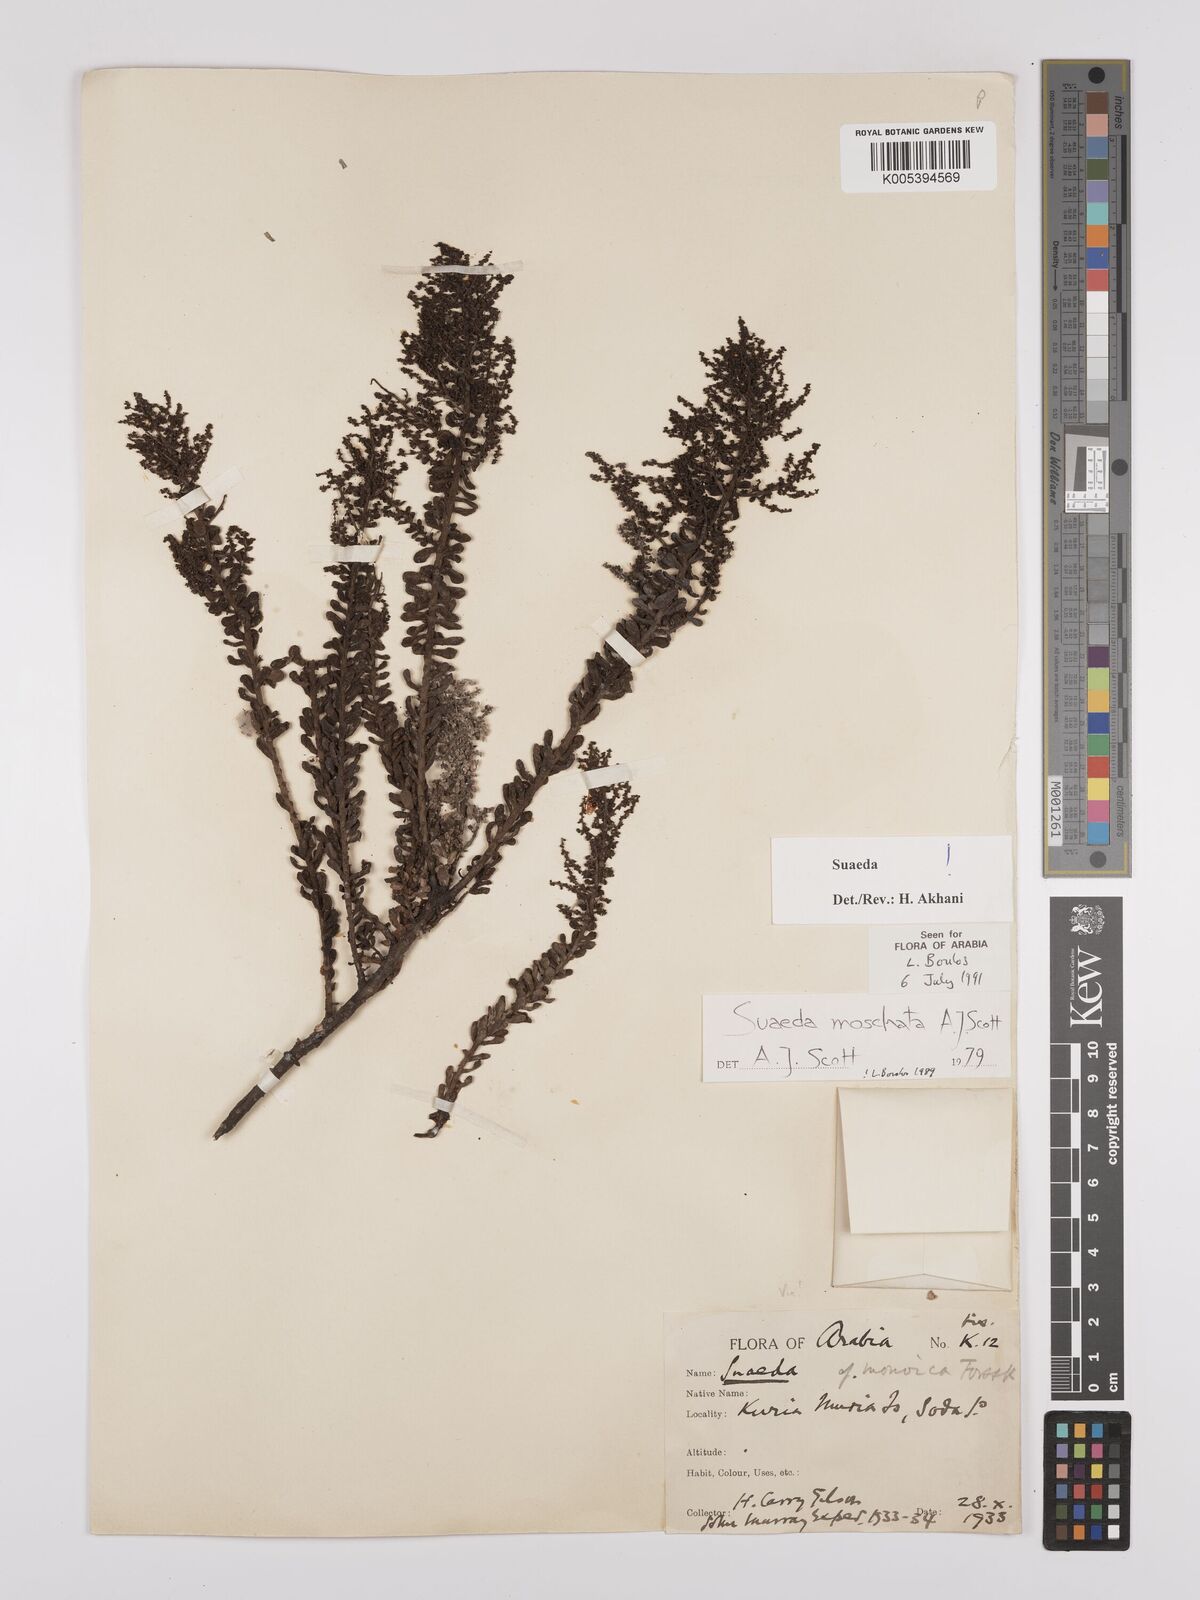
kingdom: Plantae
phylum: Tracheophyta
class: Magnoliopsida
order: Caryophyllales
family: Amaranthaceae
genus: Suaeda
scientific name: Suaeda
